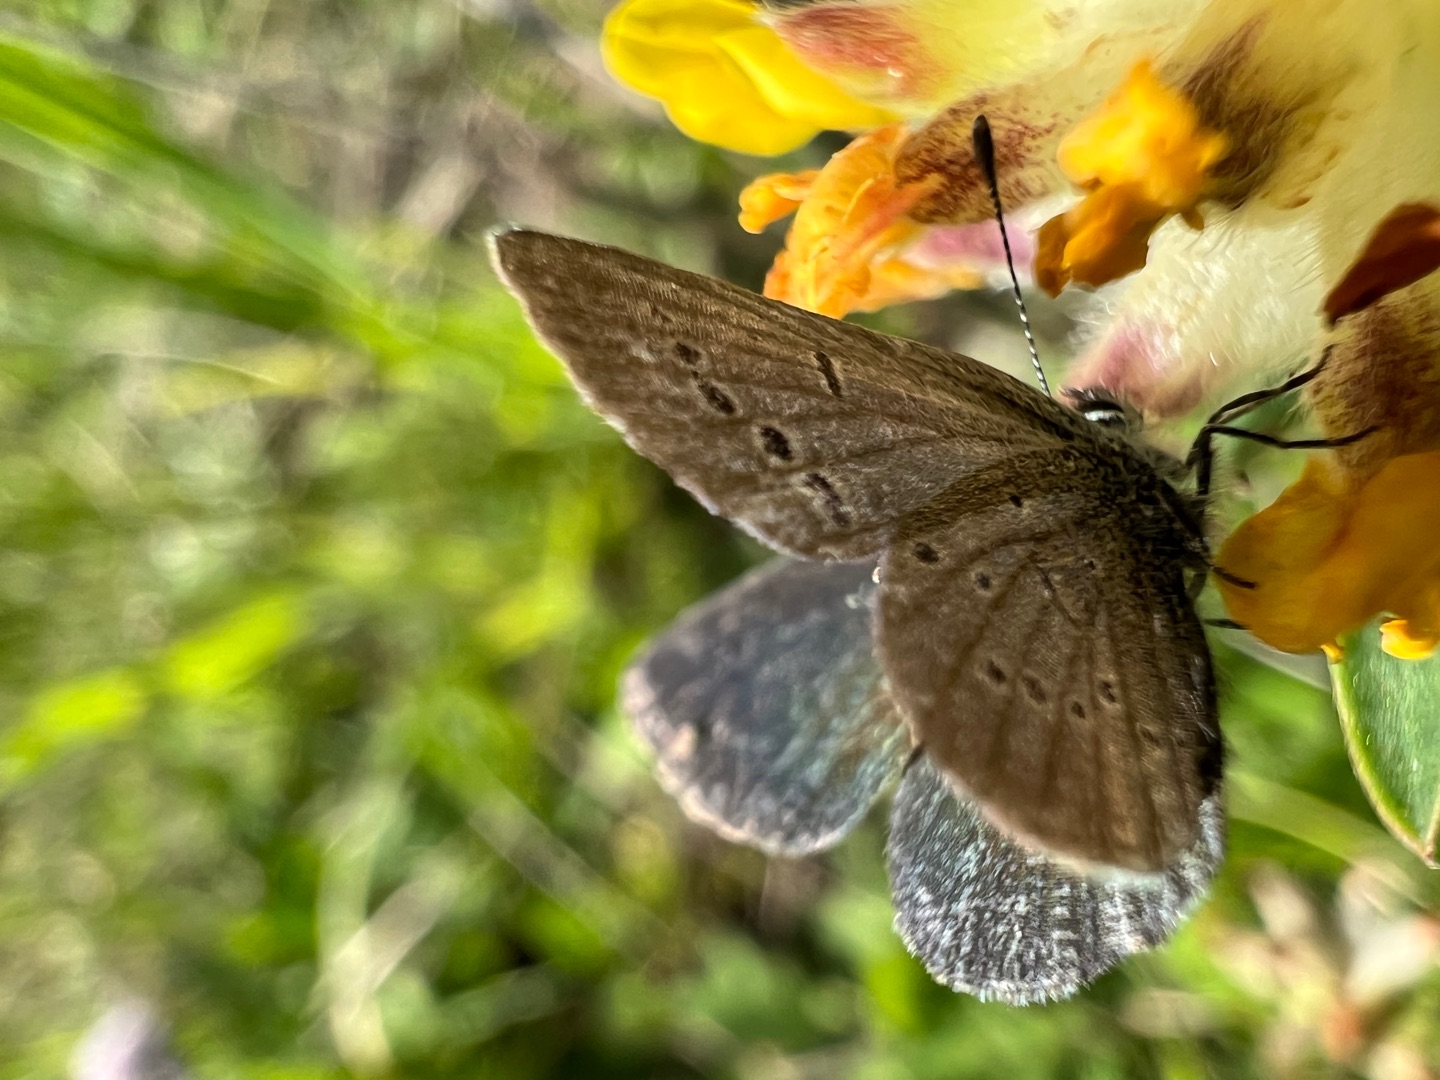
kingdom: Animalia
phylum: Arthropoda
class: Insecta
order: Lepidoptera
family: Lycaenidae
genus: Cupido
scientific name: Cupido minimus
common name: Dværgblåfugl
